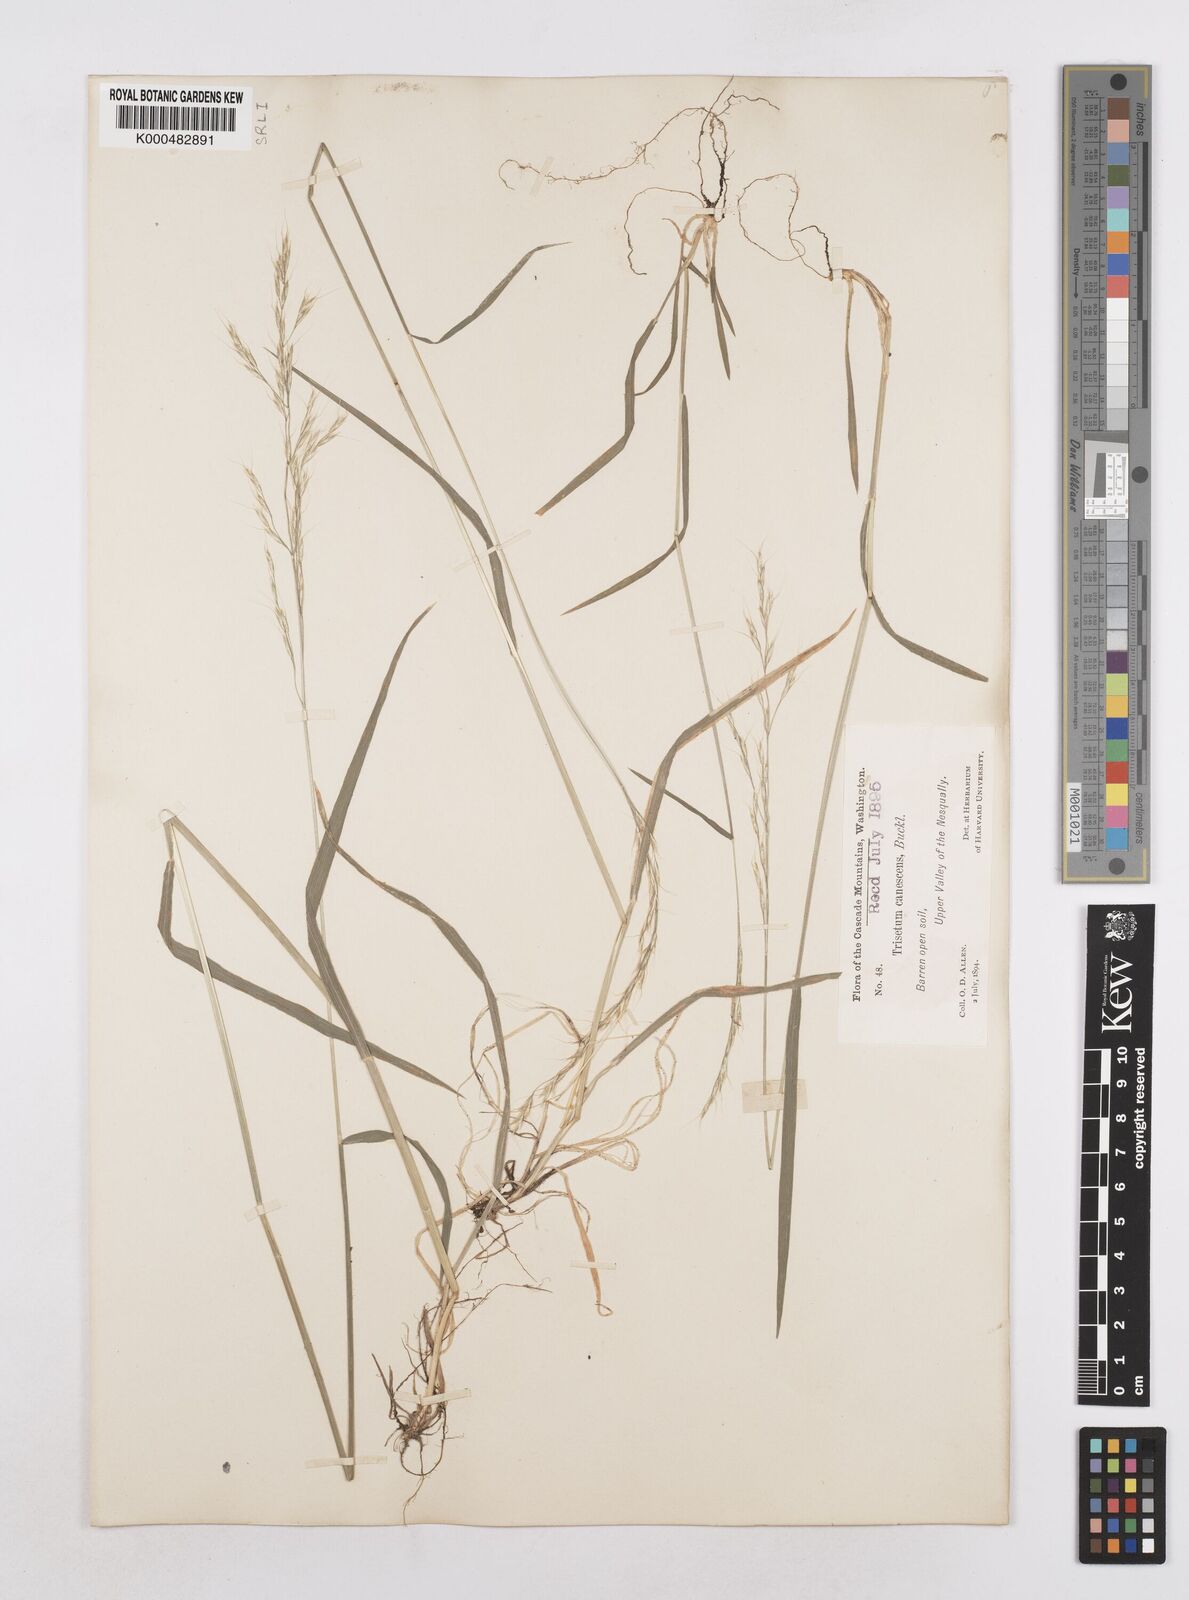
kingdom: Plantae
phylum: Tracheophyta
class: Liliopsida
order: Poales
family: Poaceae
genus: Graphephorum
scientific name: Graphephorum canescens
